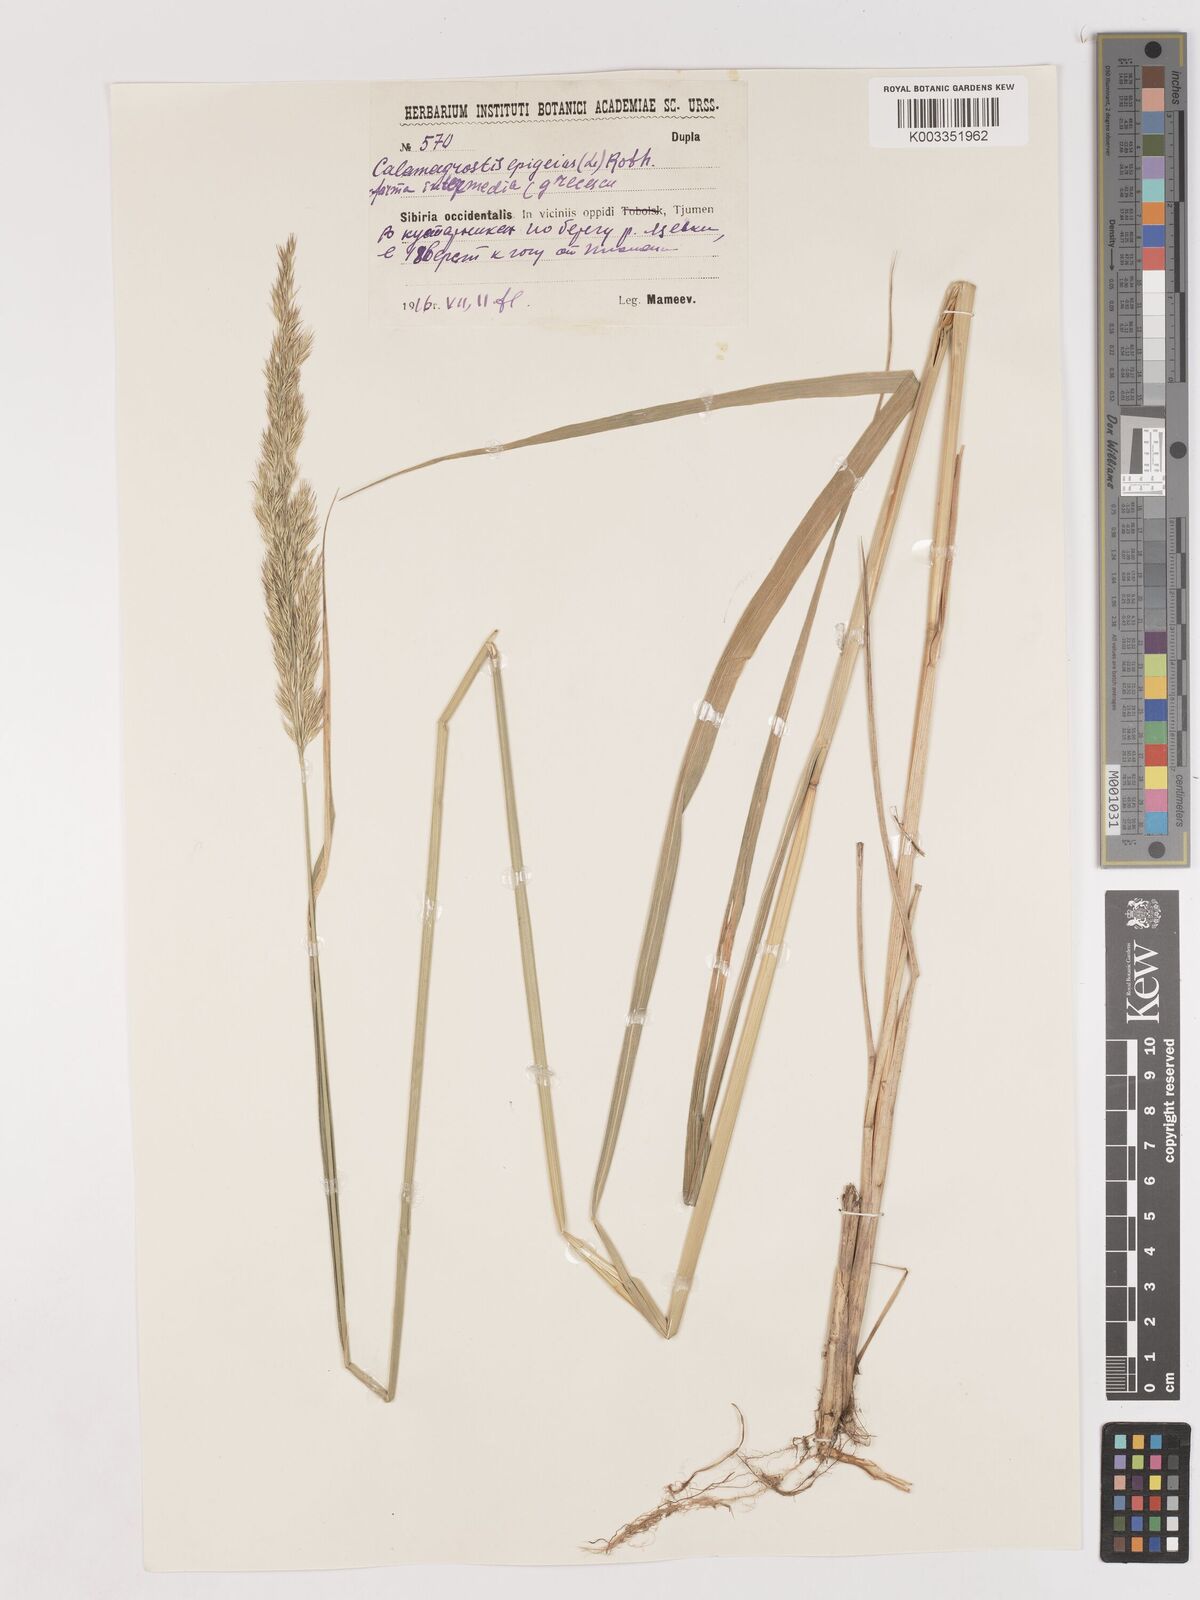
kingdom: Plantae
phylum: Tracheophyta
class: Liliopsida
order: Poales
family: Poaceae
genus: Calamagrostis
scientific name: Calamagrostis epigejos
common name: Wood small-reed
